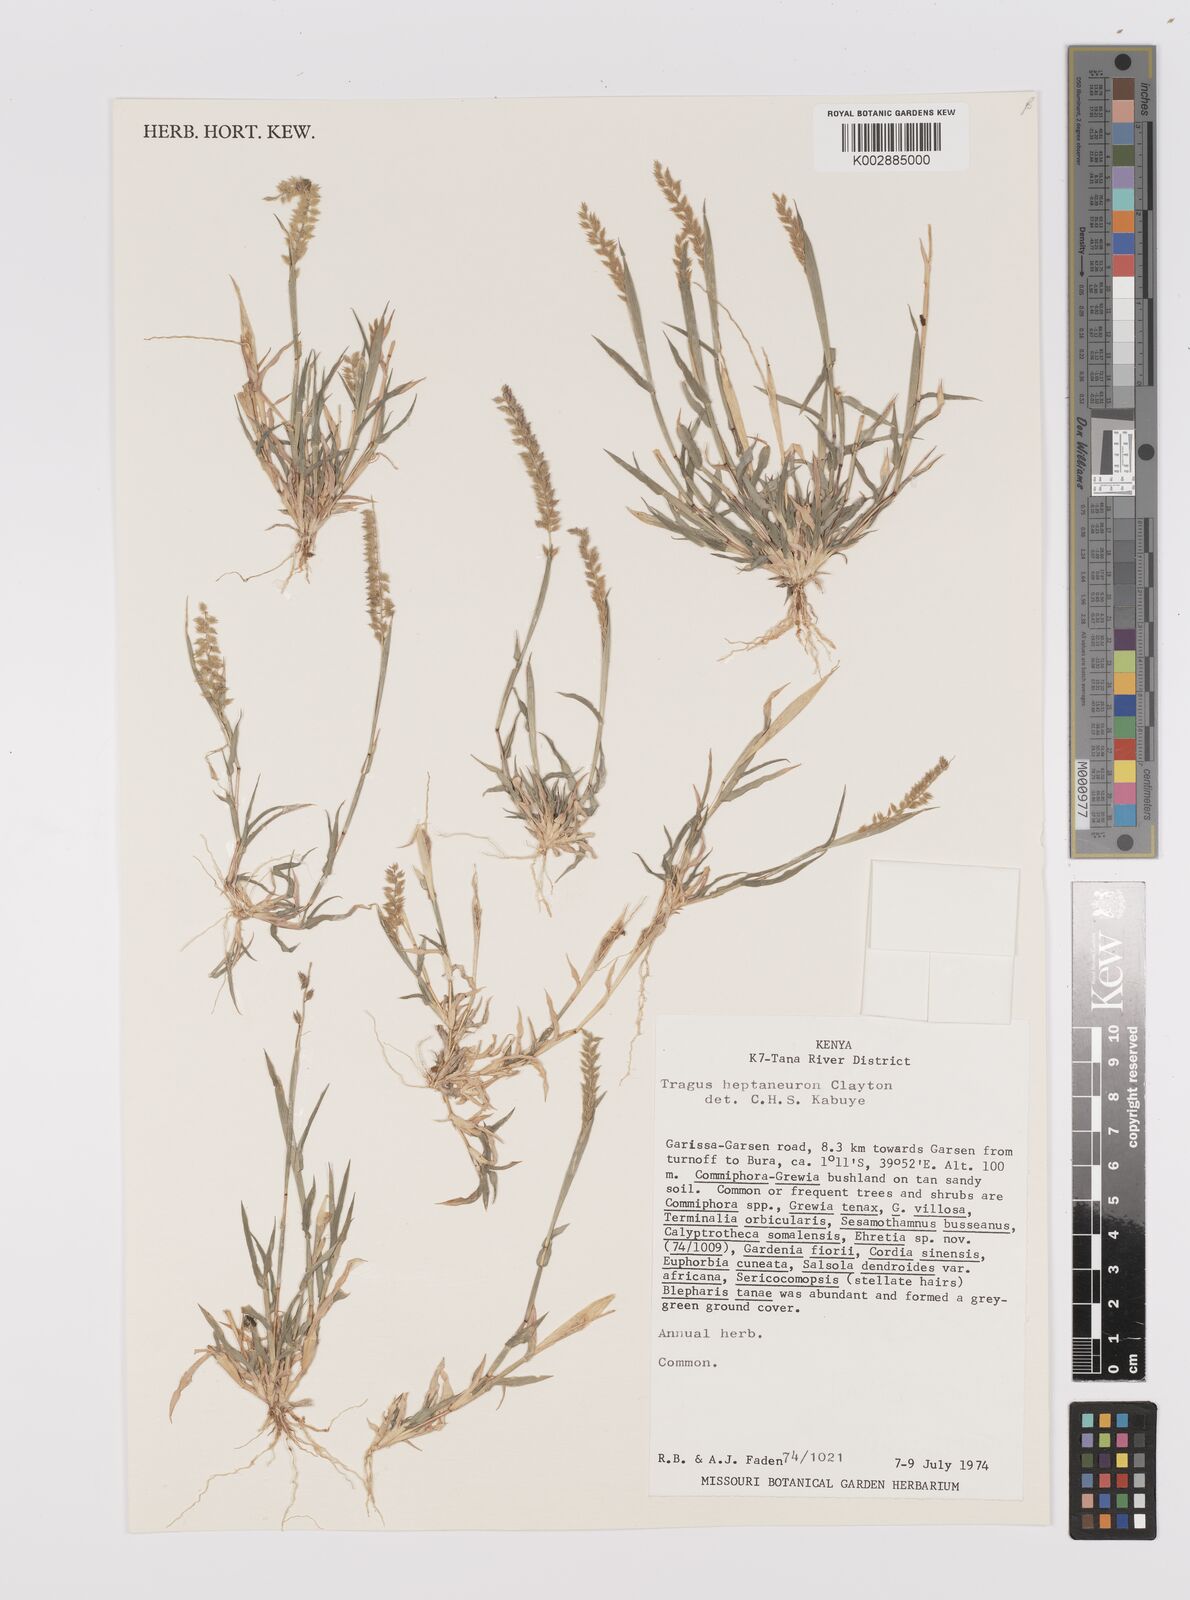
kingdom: Plantae
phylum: Tracheophyta
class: Liliopsida
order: Poales
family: Poaceae
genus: Tragus
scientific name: Tragus heptaneuron
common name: Kenya bur grass
